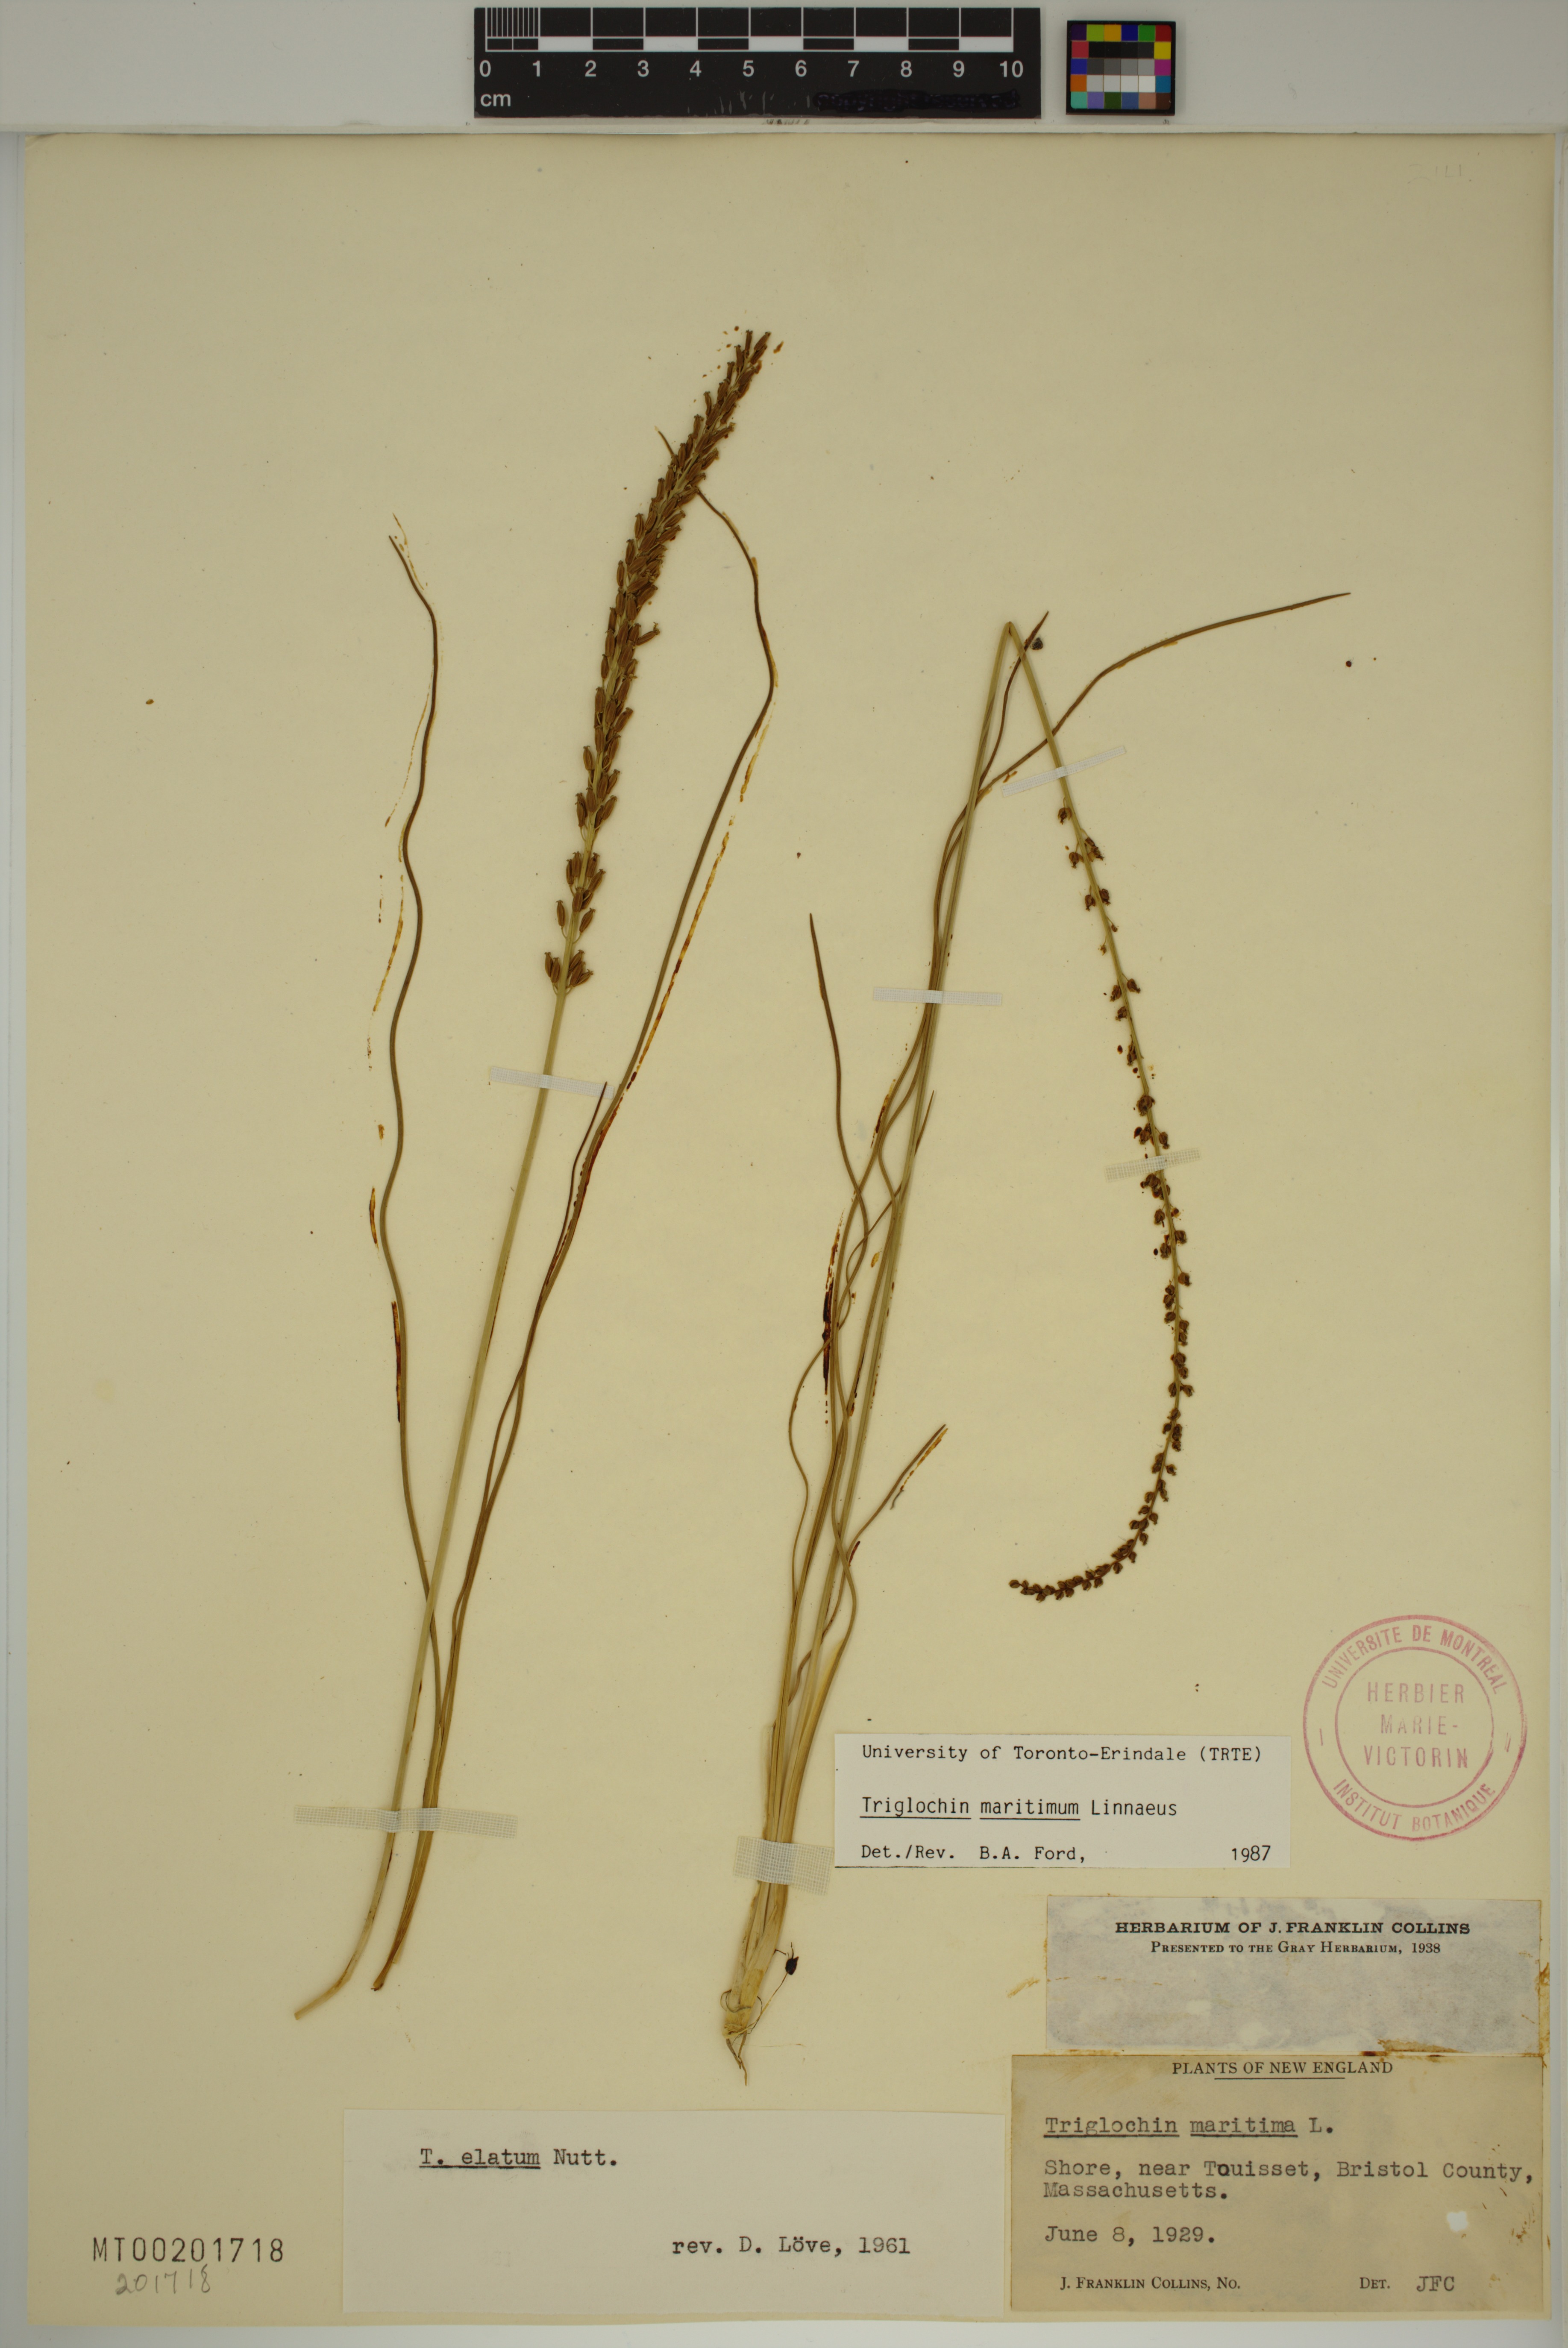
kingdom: Plantae
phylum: Tracheophyta
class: Liliopsida
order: Alismatales
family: Juncaginaceae
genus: Triglochin
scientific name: Triglochin maritima
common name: Sea arrowgrass
